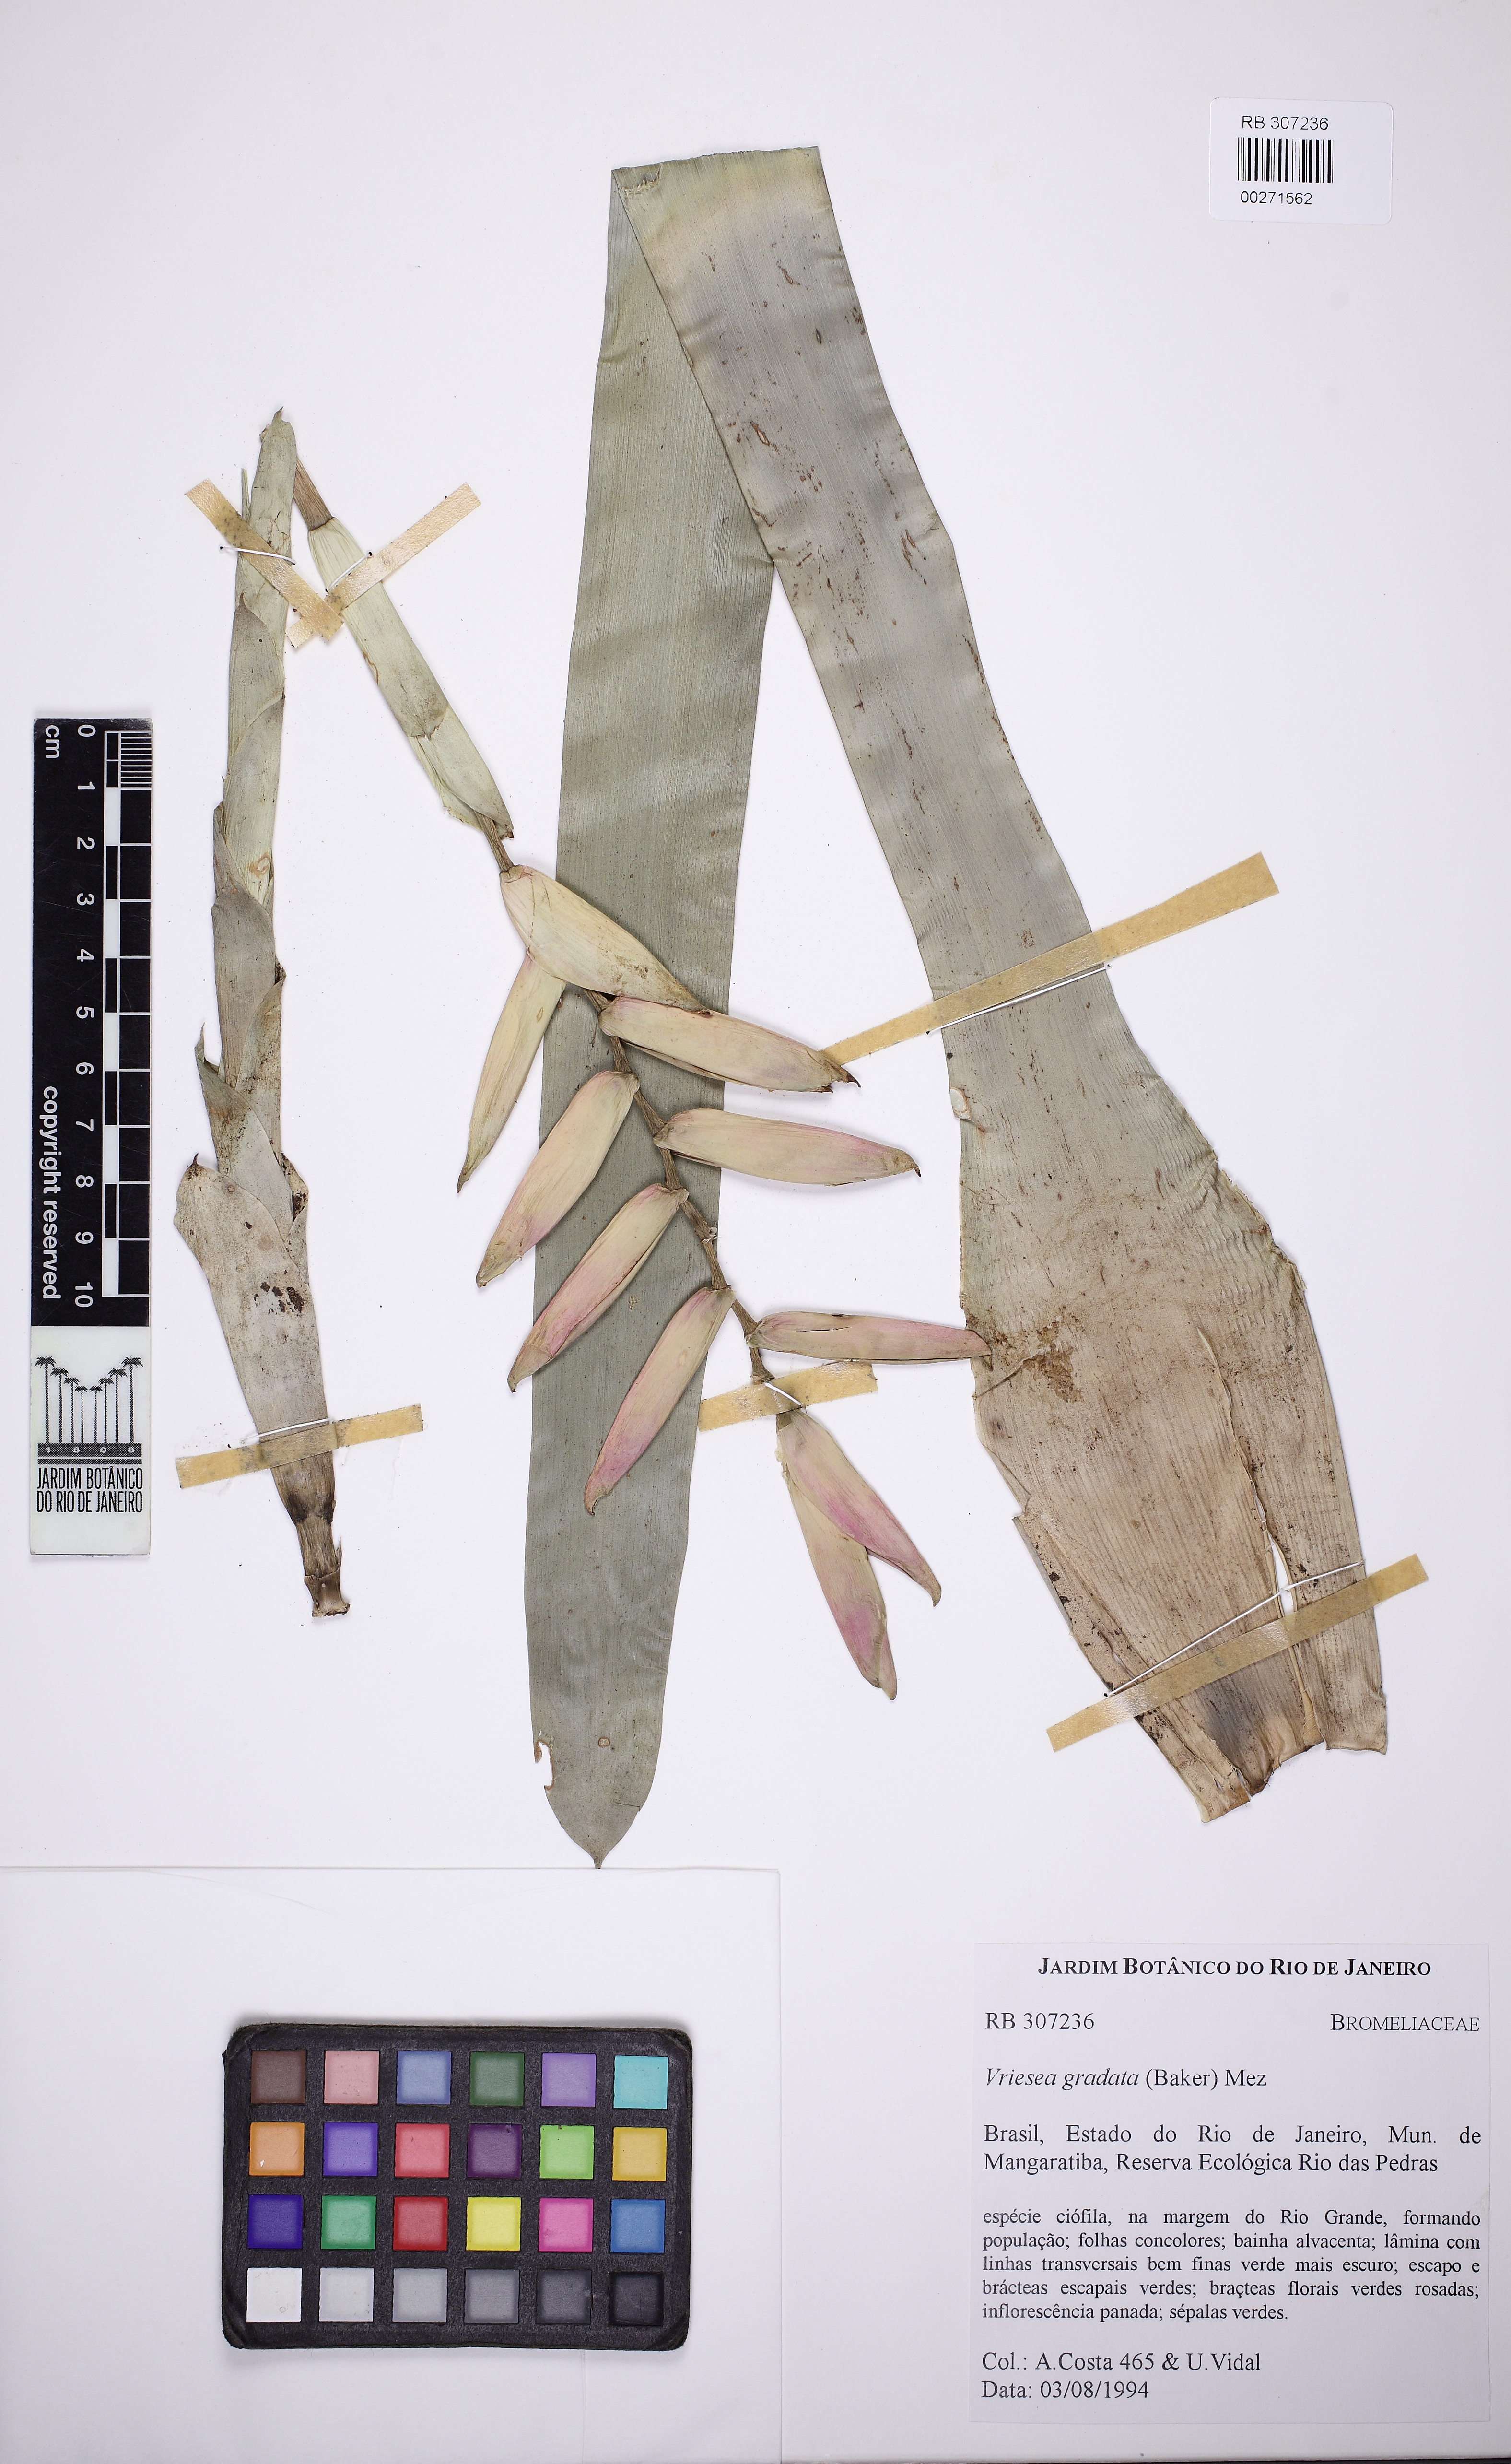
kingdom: Plantae
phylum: Tracheophyta
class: Liliopsida
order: Poales
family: Bromeliaceae
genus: Vriesea
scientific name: Vriesea gradata
